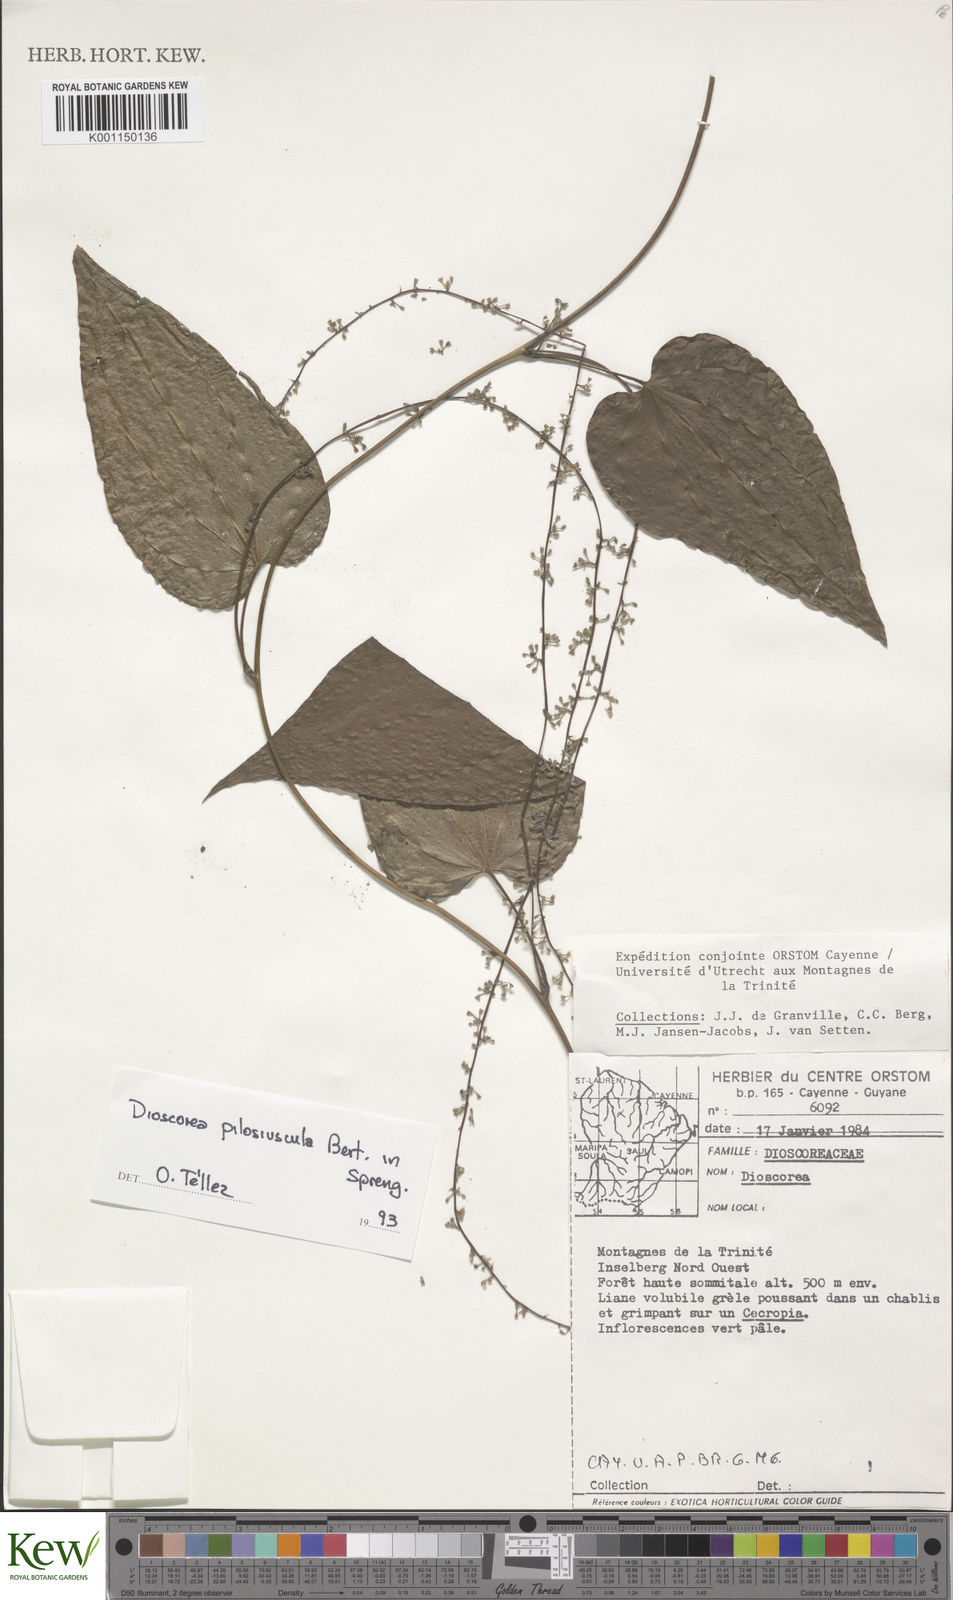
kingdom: Plantae
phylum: Tracheophyta
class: Liliopsida
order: Dioscoreales
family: Dioscoreaceae
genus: Dioscorea
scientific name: Dioscorea
